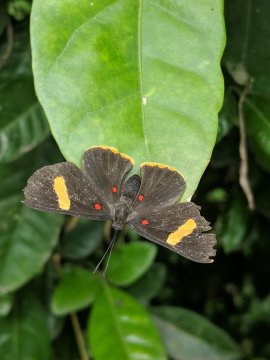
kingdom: Animalia
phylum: Arthropoda
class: Insecta
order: Lepidoptera
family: Lycaenidae
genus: Melanis
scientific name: Melanis electron
